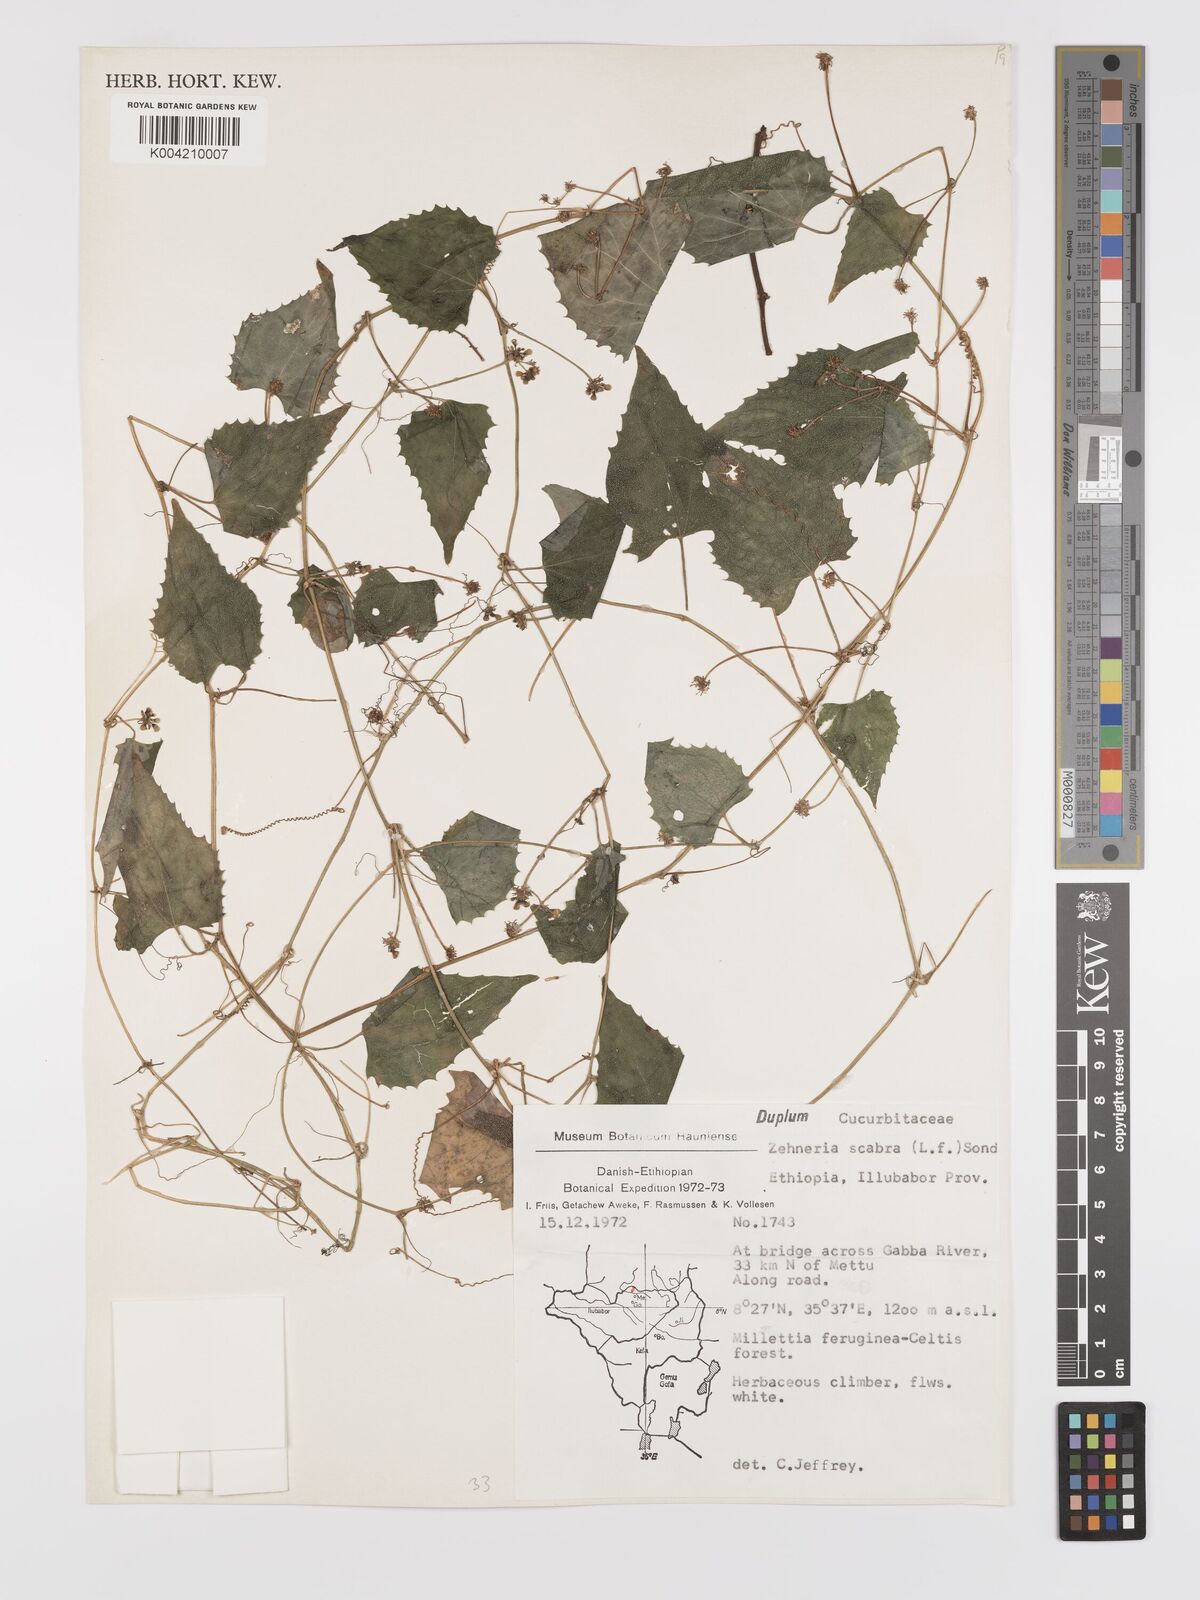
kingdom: Plantae
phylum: Tracheophyta
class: Magnoliopsida
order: Cucurbitales
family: Cucurbitaceae
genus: Zehneria
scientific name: Zehneria scabra
